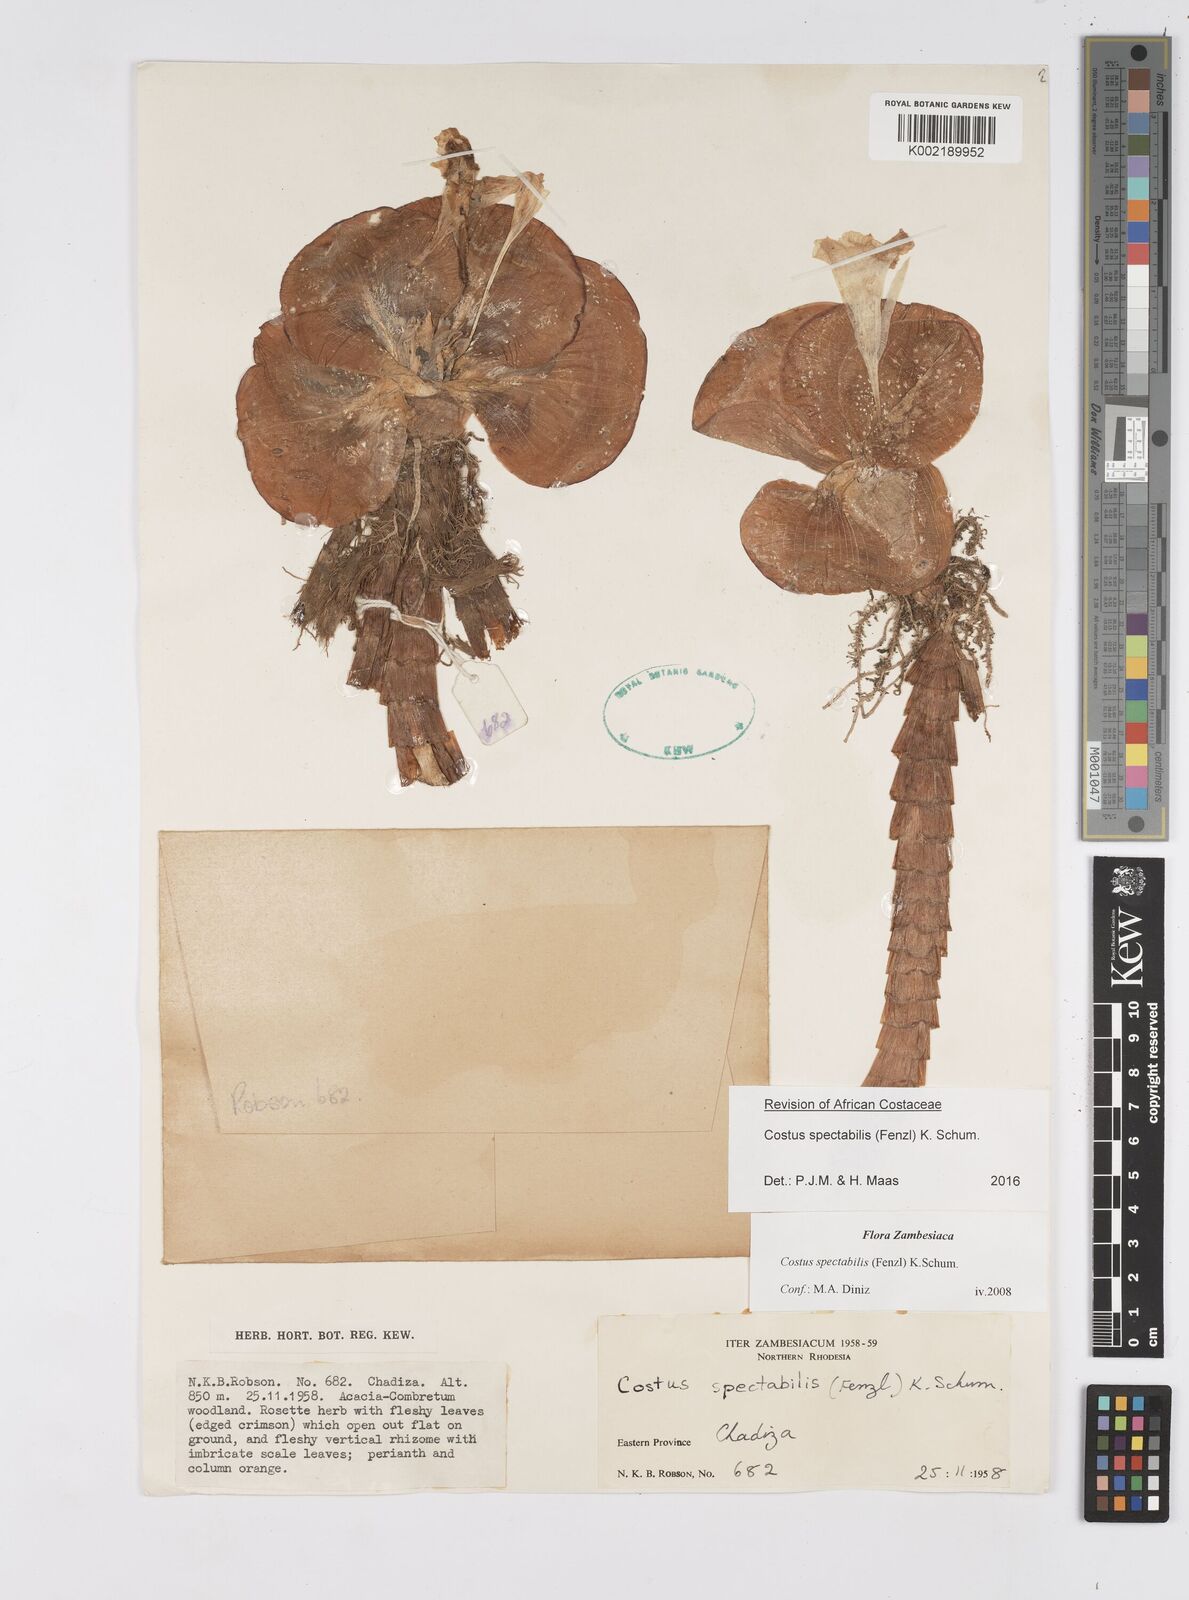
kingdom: Plantae
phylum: Tracheophyta
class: Liliopsida
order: Zingiberales
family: Costaceae
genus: Costus
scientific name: Costus spectabilis
